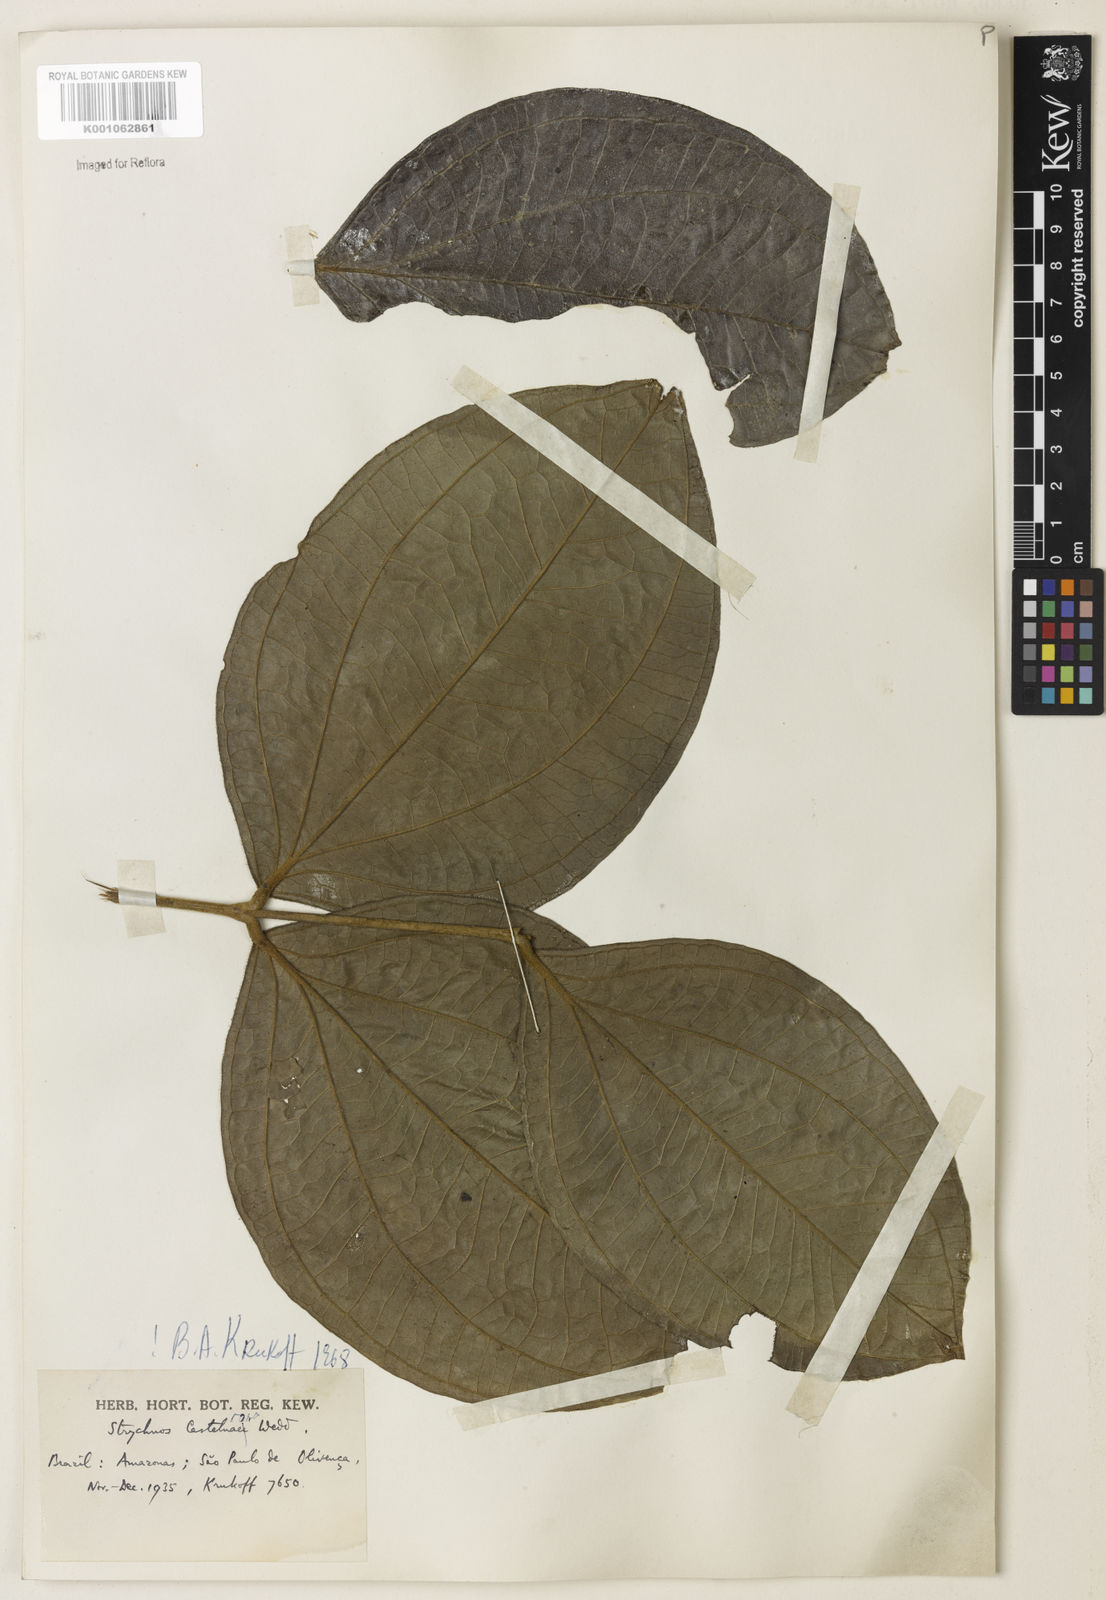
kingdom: Plantae
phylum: Tracheophyta
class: Magnoliopsida
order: Gentianales
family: Loganiaceae
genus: Strychnos
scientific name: Strychnos
